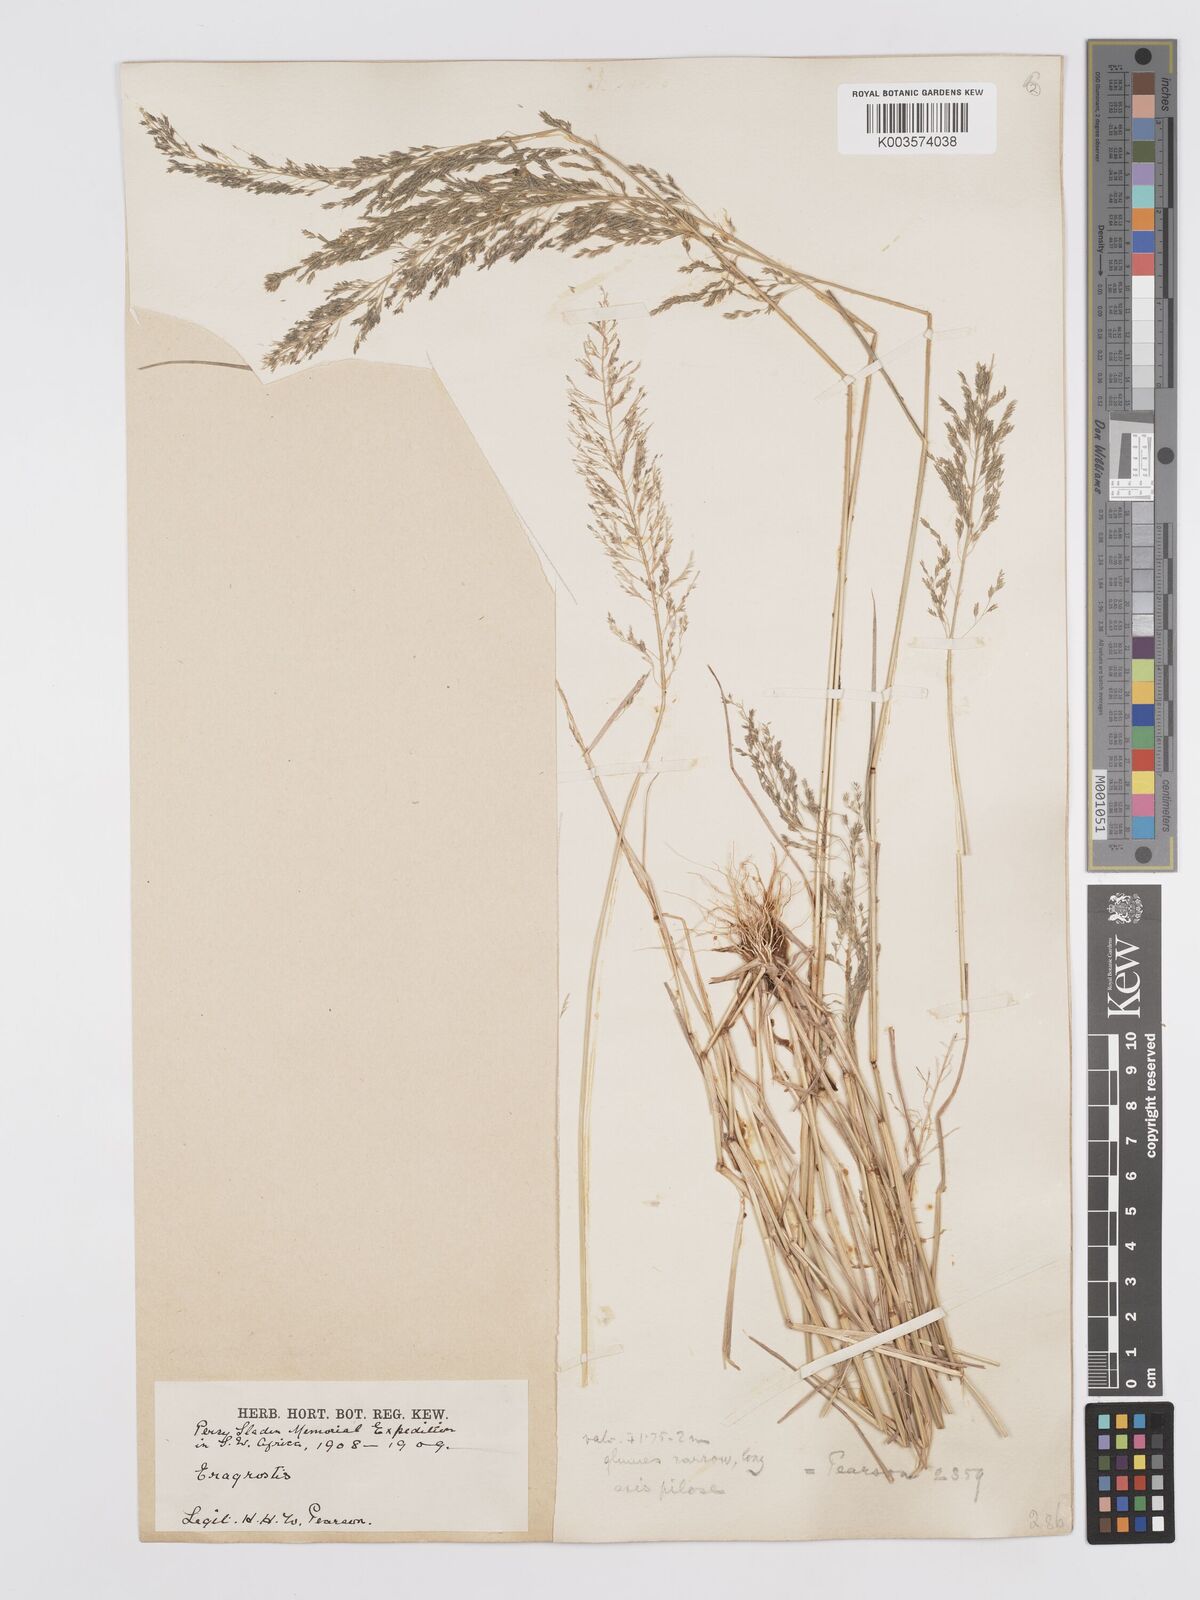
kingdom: Plantae
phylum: Tracheophyta
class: Liliopsida
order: Poales
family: Poaceae
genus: Eragrostis
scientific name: Eragrostis cylindriflora
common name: Cylinderflower lovegrass
